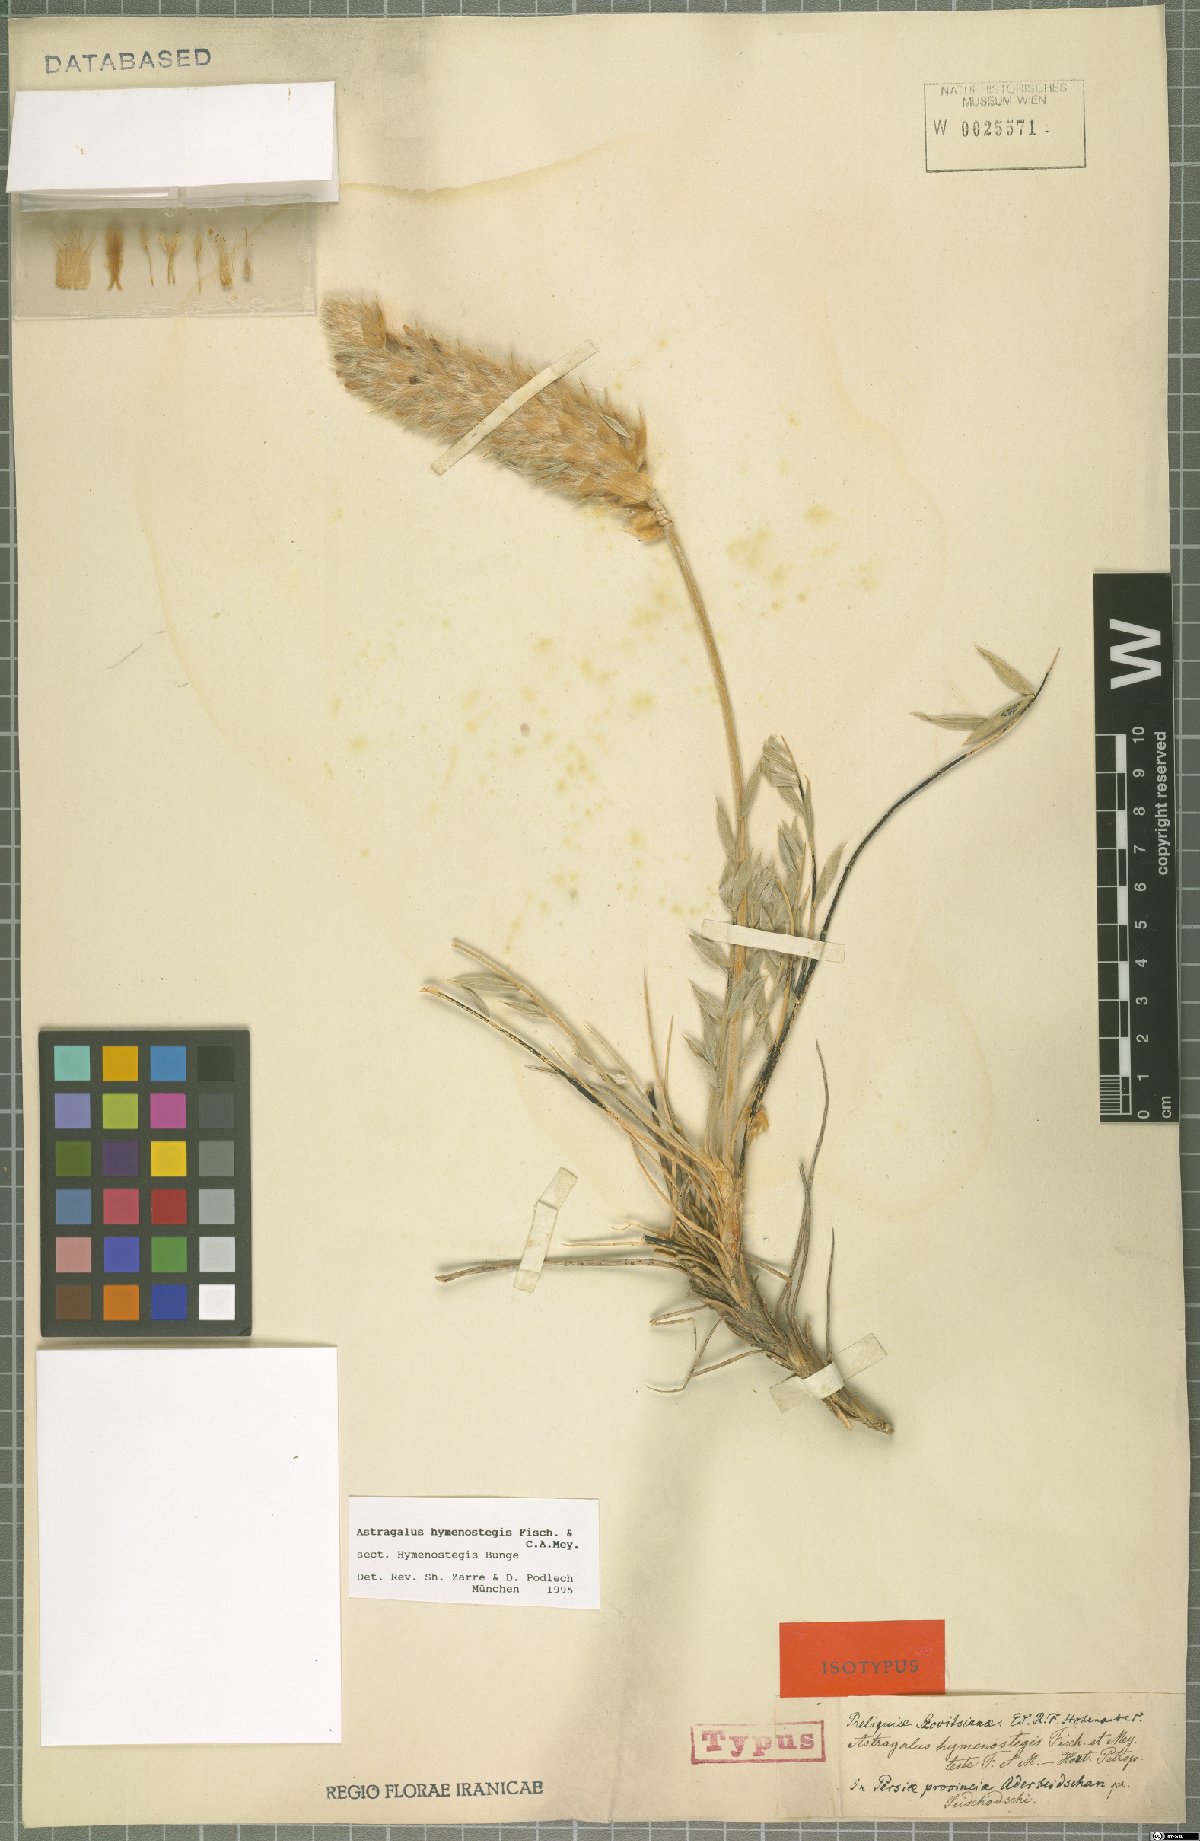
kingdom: Plantae
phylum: Tracheophyta
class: Magnoliopsida
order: Fabales
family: Fabaceae
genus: Astragalus
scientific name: Astragalus hymenostegis
